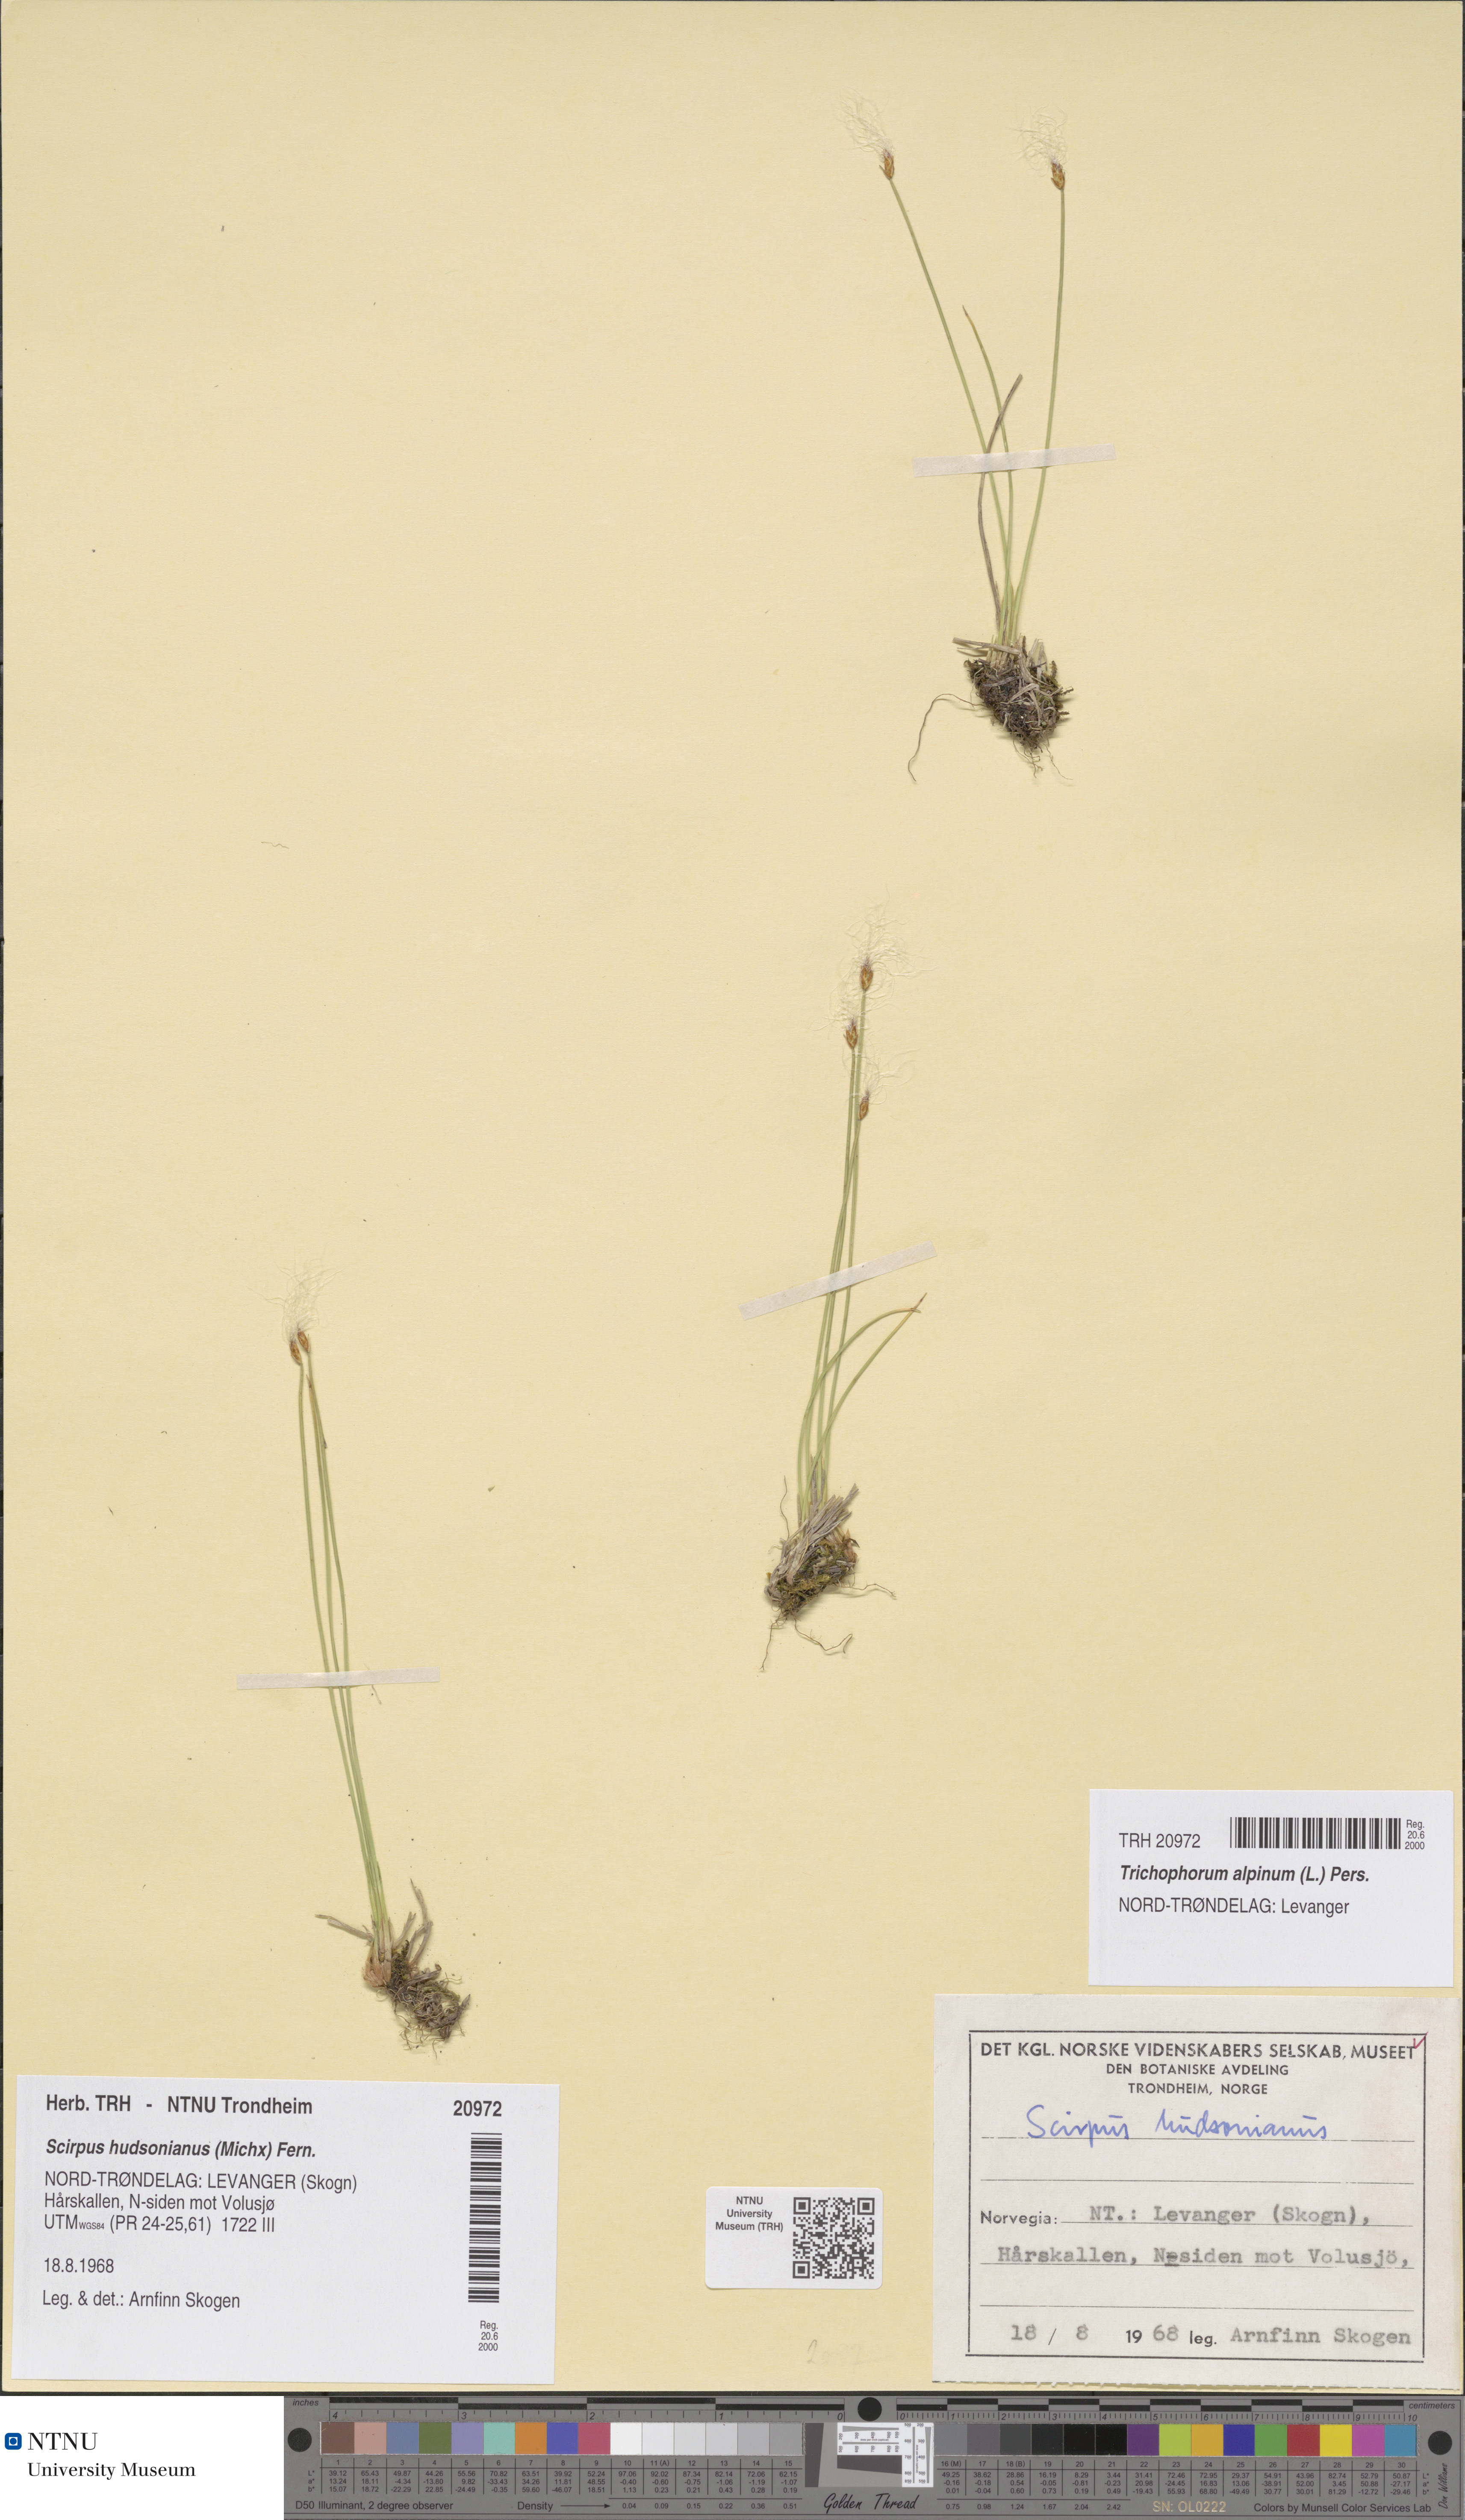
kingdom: Plantae
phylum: Tracheophyta
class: Liliopsida
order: Poales
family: Cyperaceae
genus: Trichophorum
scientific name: Trichophorum alpinum
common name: Alpine bulrush
